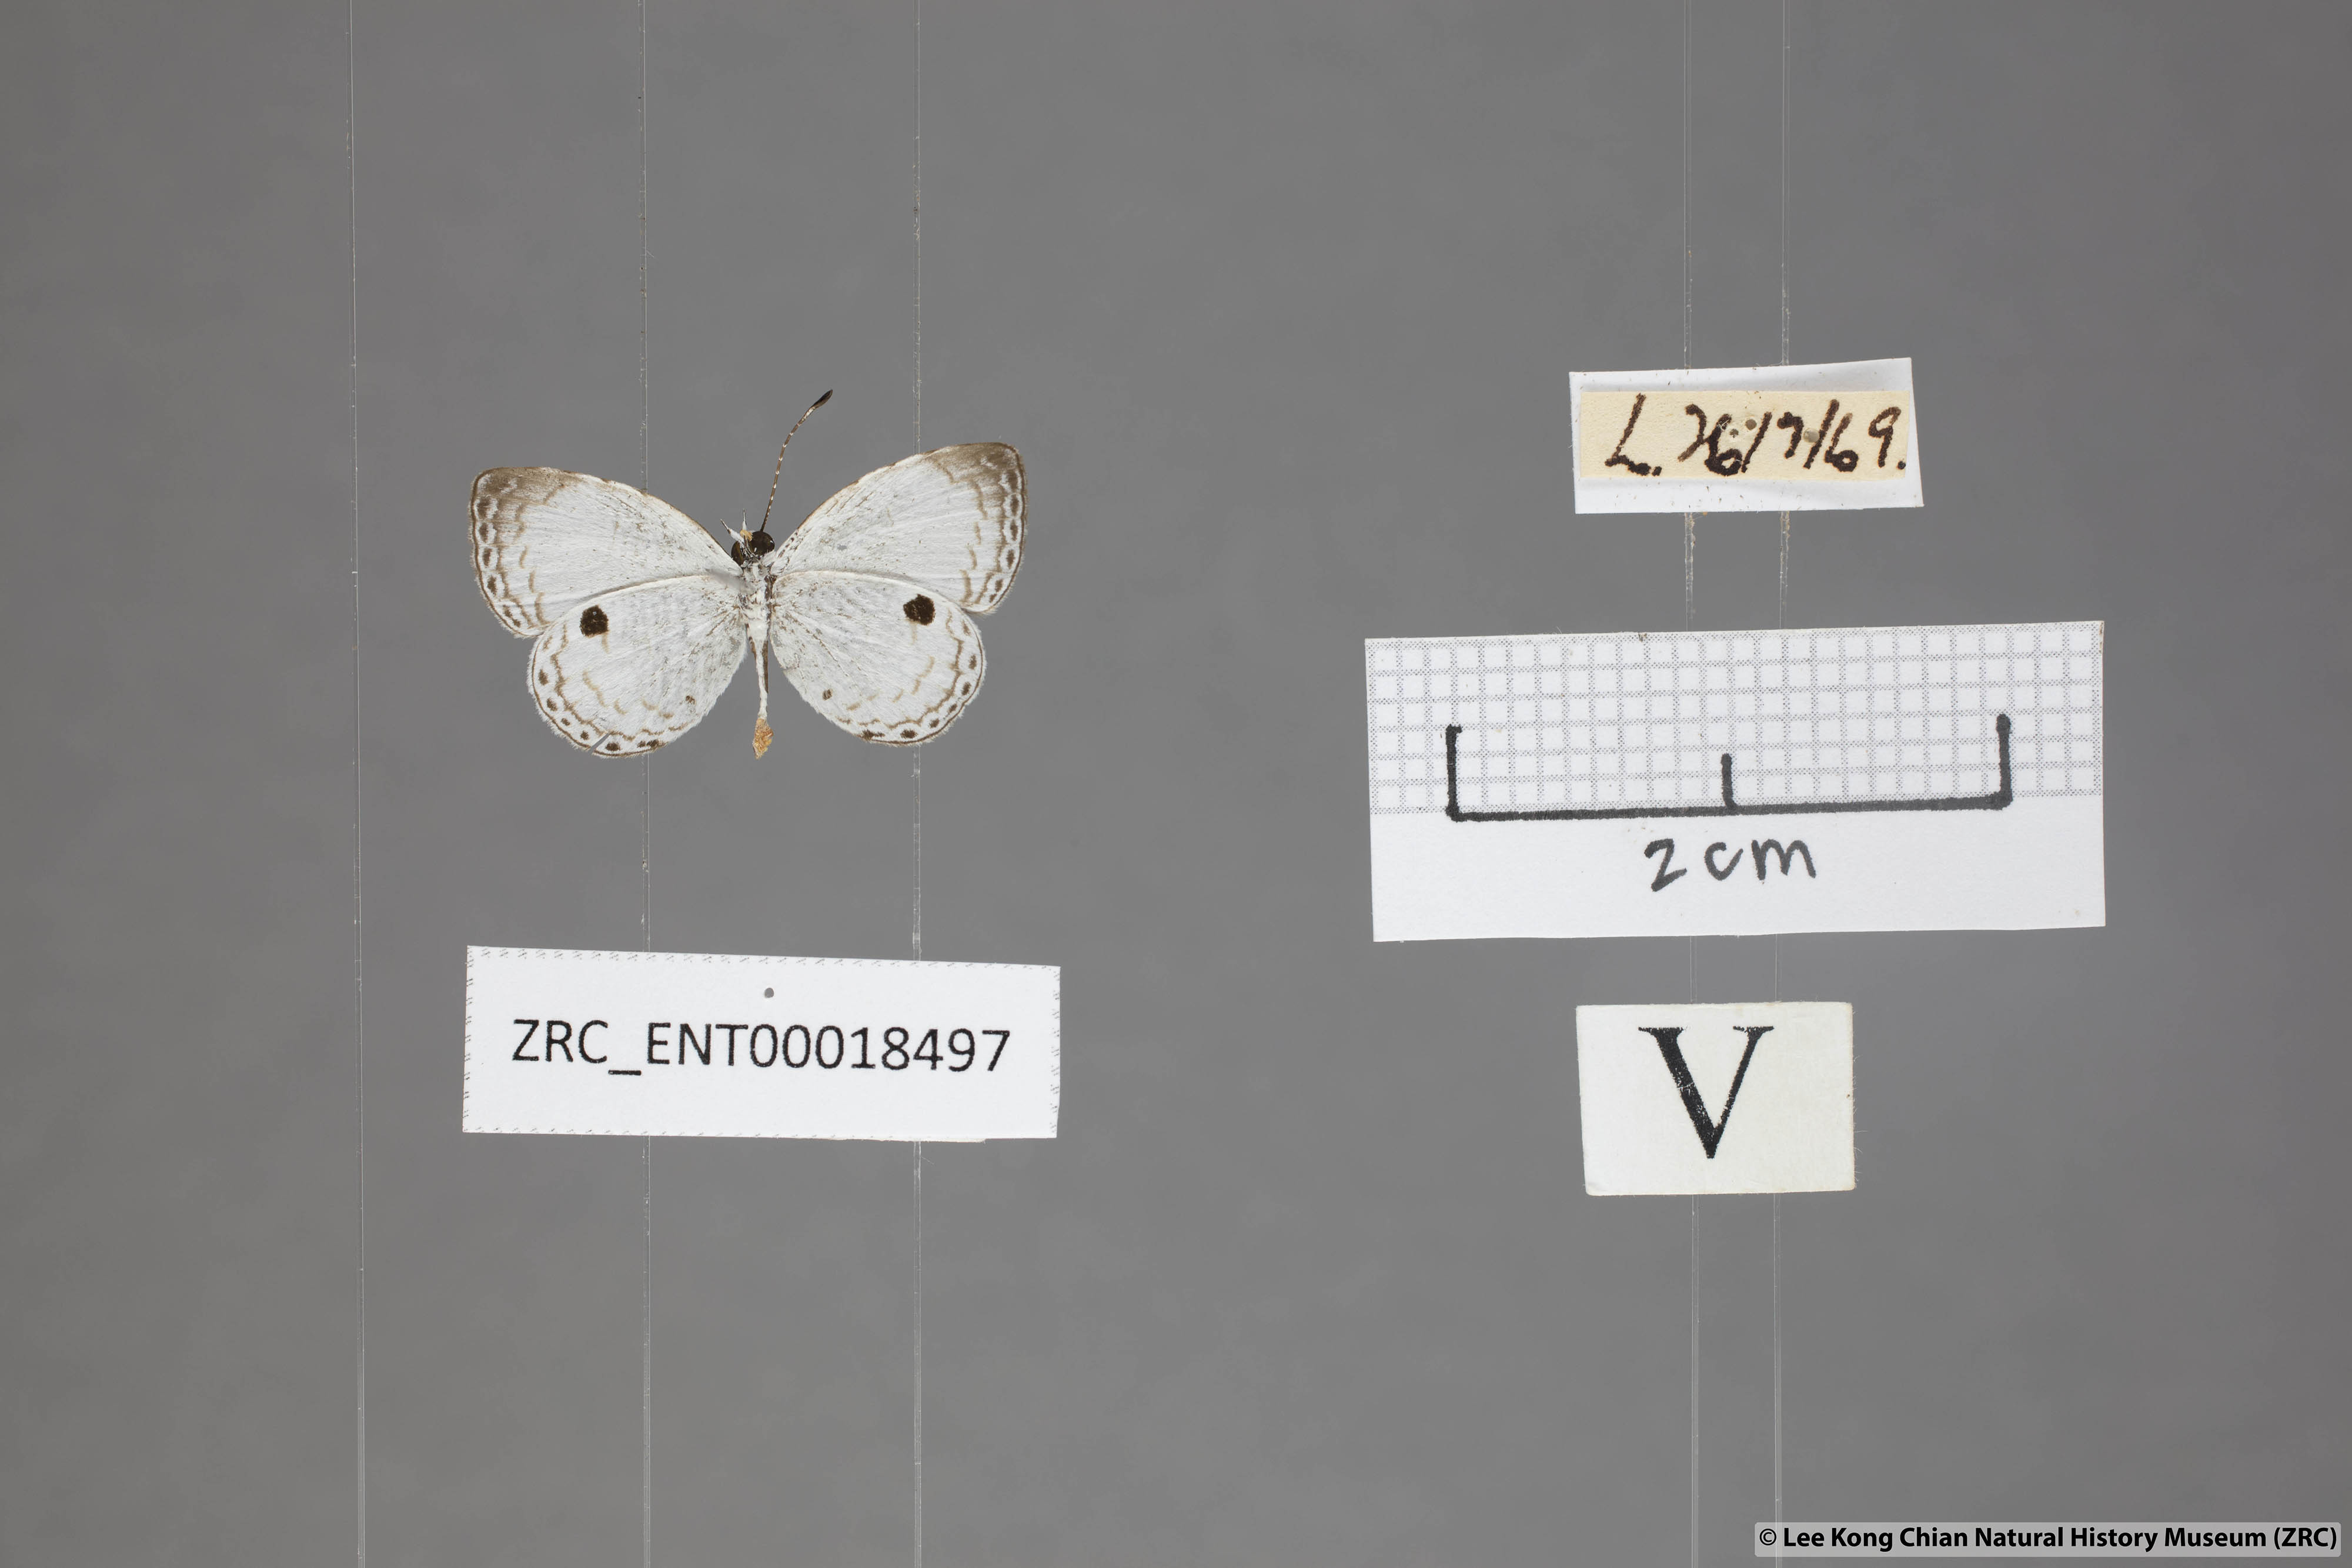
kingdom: Animalia
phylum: Arthropoda
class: Insecta
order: Lepidoptera
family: Lycaenidae
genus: Neopithecops
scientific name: Neopithecops zalmora
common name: Quaker
